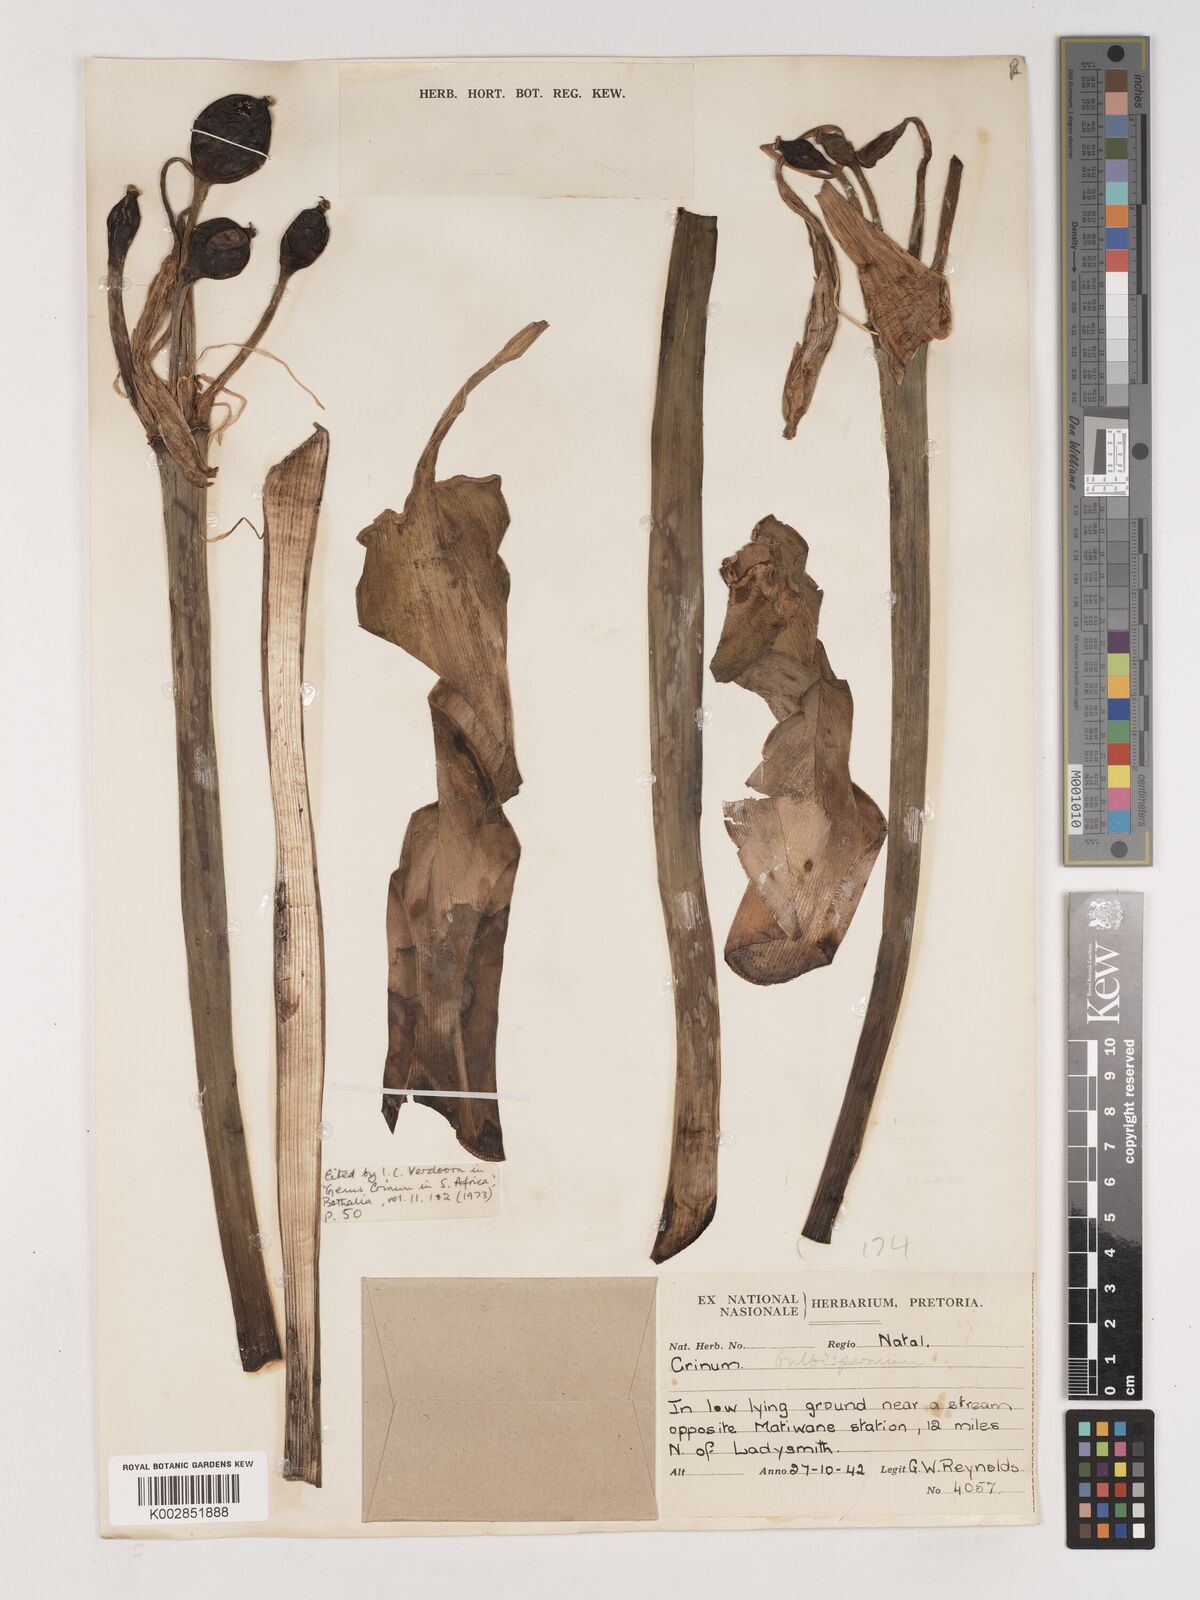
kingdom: Plantae
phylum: Tracheophyta
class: Liliopsida
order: Asparagales
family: Amaryllidaceae
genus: Crinum
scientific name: Crinum bulbispermum
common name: Hardy swamplily
